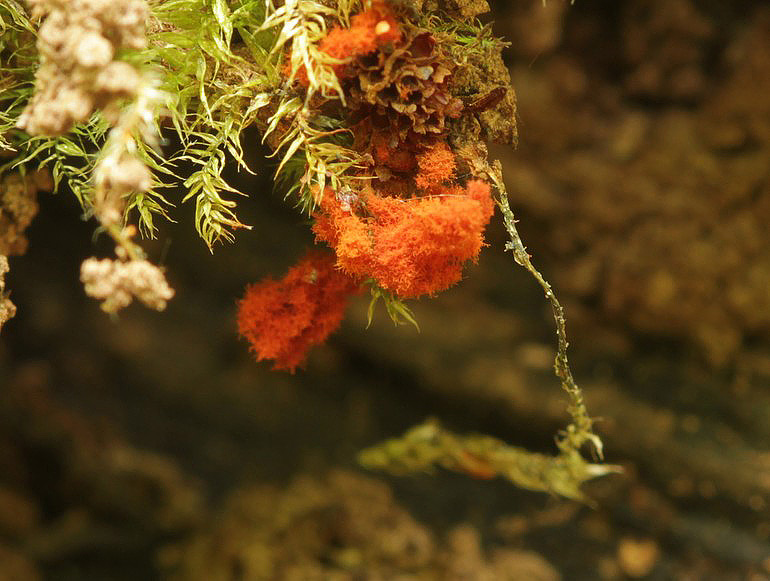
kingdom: Protozoa
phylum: Mycetozoa
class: Myxomycetes
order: Trichiales
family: Trichiaceae
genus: Metatrichia
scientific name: Metatrichia vesparia
